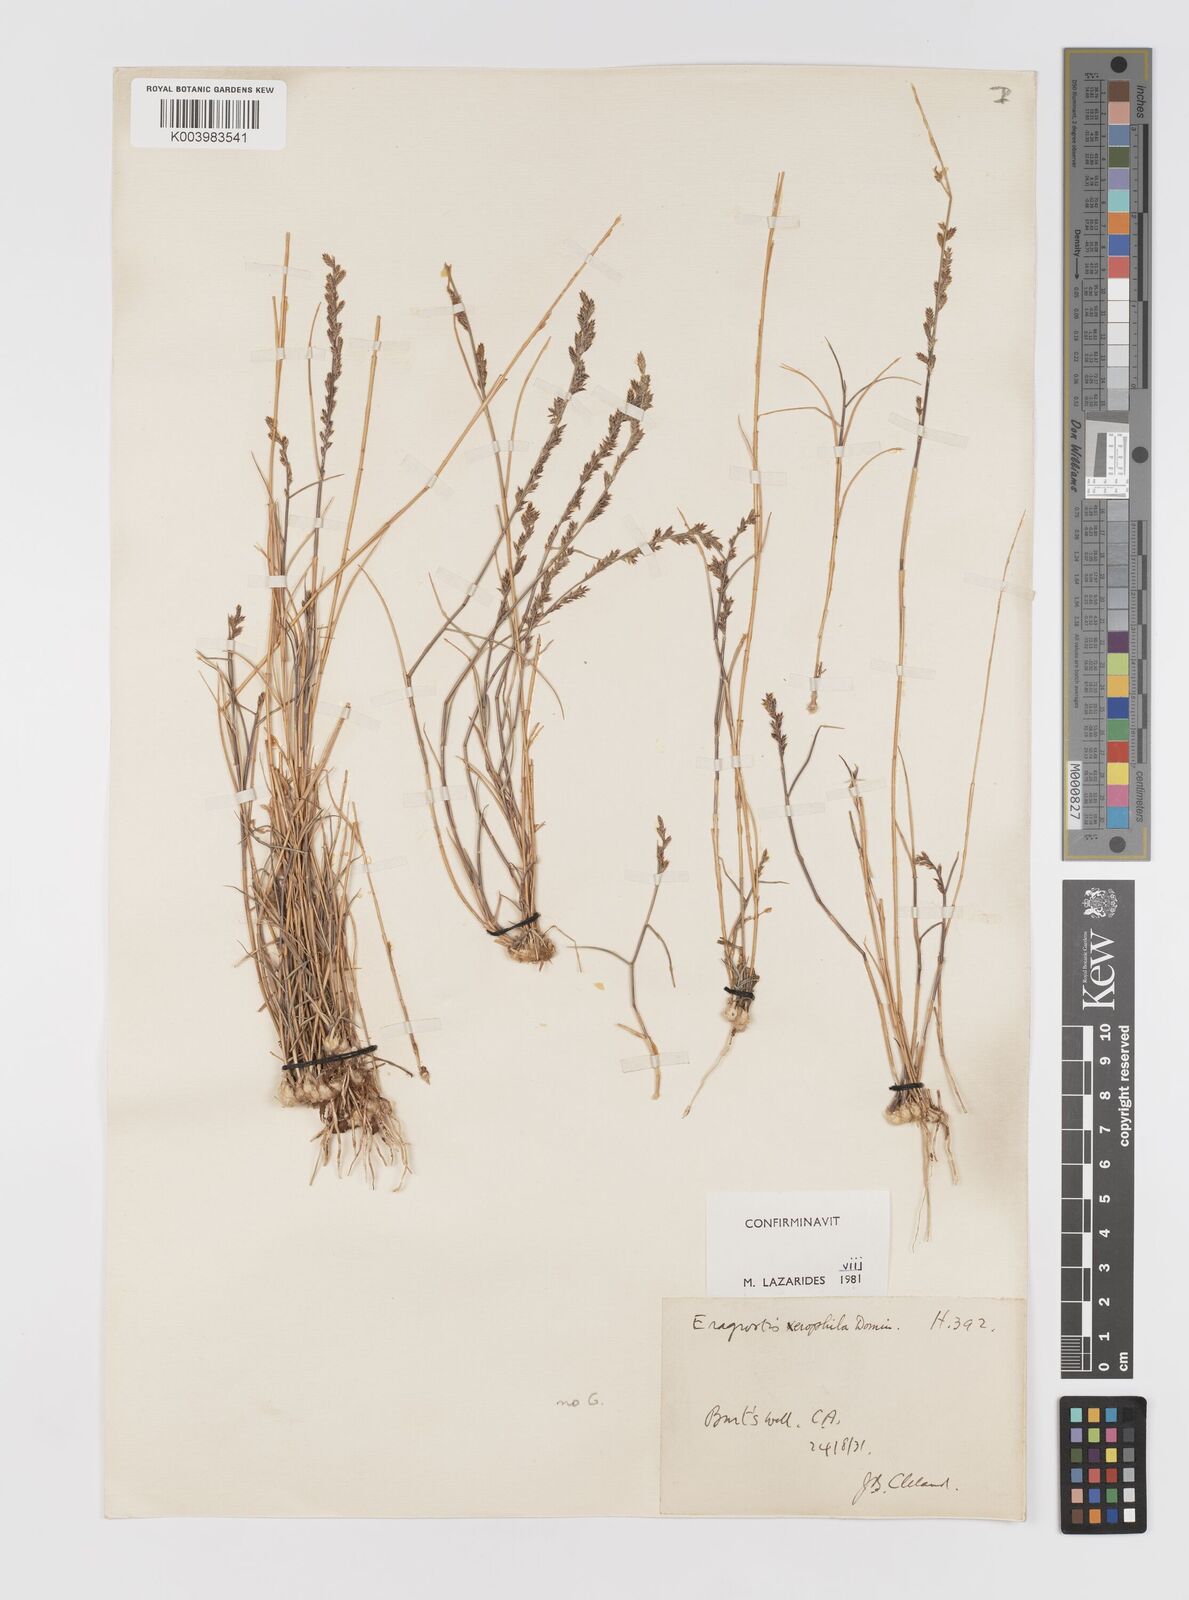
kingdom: Plantae
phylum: Tracheophyta
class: Liliopsida
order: Poales
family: Poaceae
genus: Eragrostis
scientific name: Eragrostis xerophila
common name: Wire wandarrie grass
